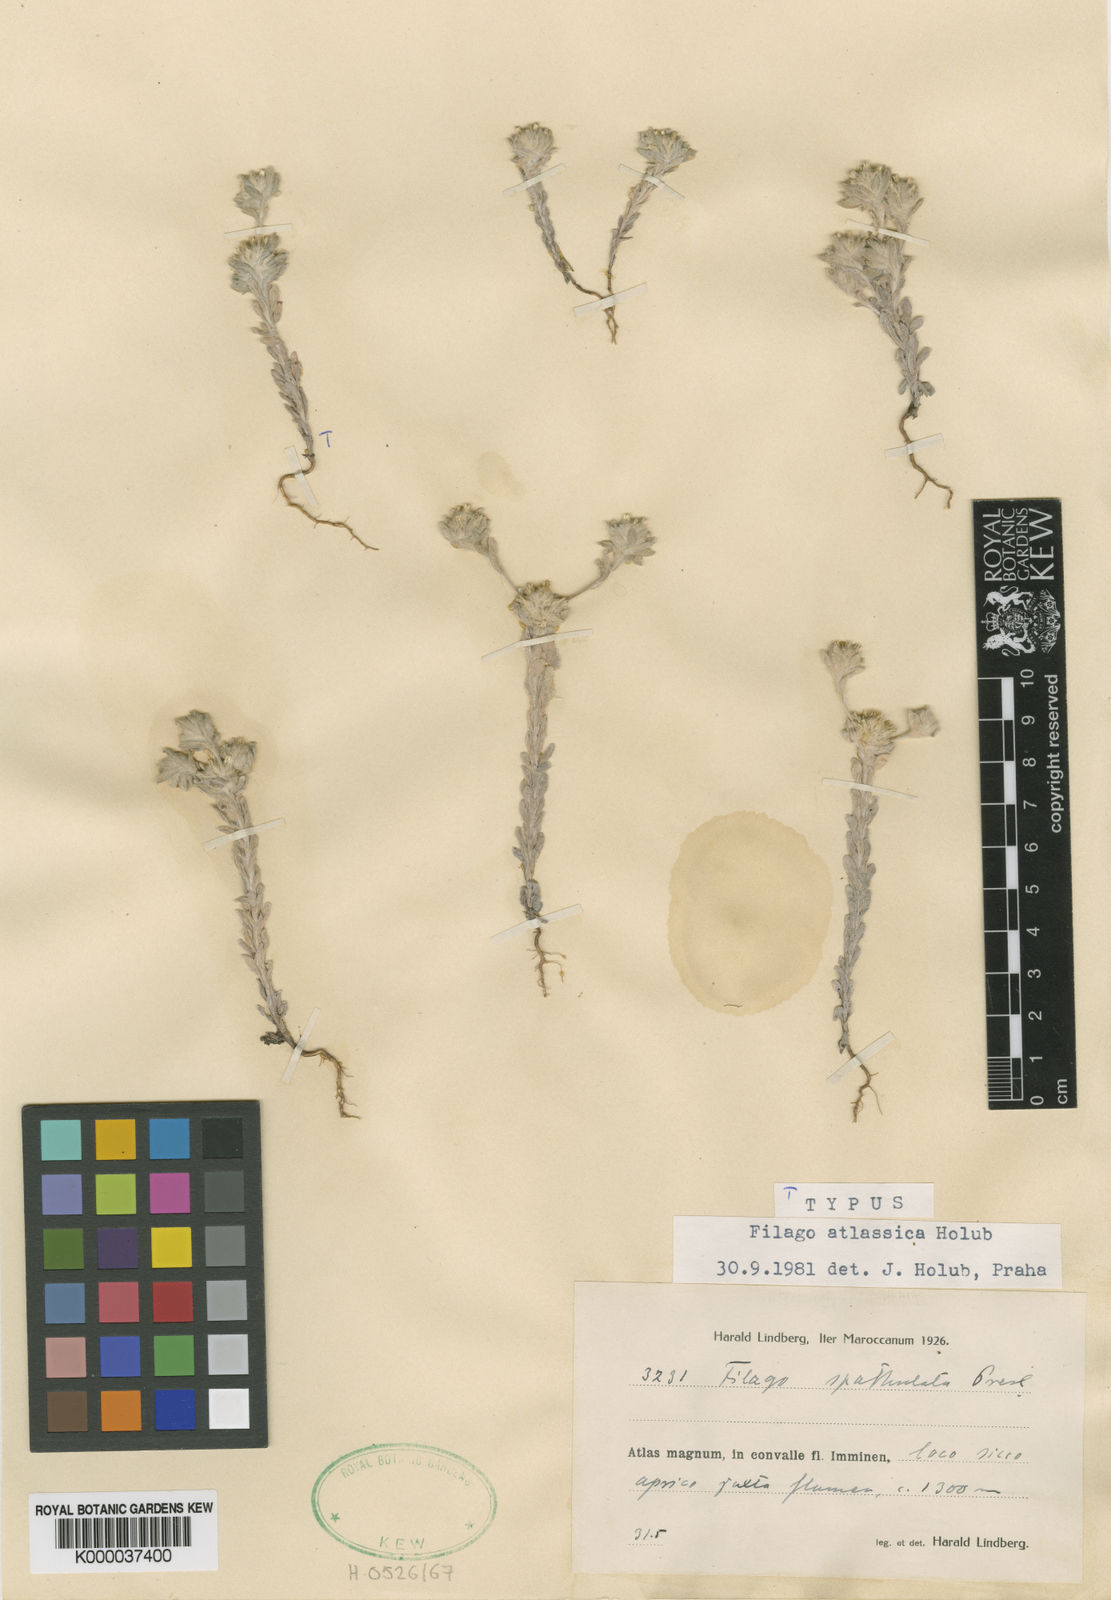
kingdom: Plantae
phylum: Tracheophyta
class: Magnoliopsida
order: Asterales
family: Asteraceae
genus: Filago
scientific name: Filago pyramidata
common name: Broad-leaved cudweed
